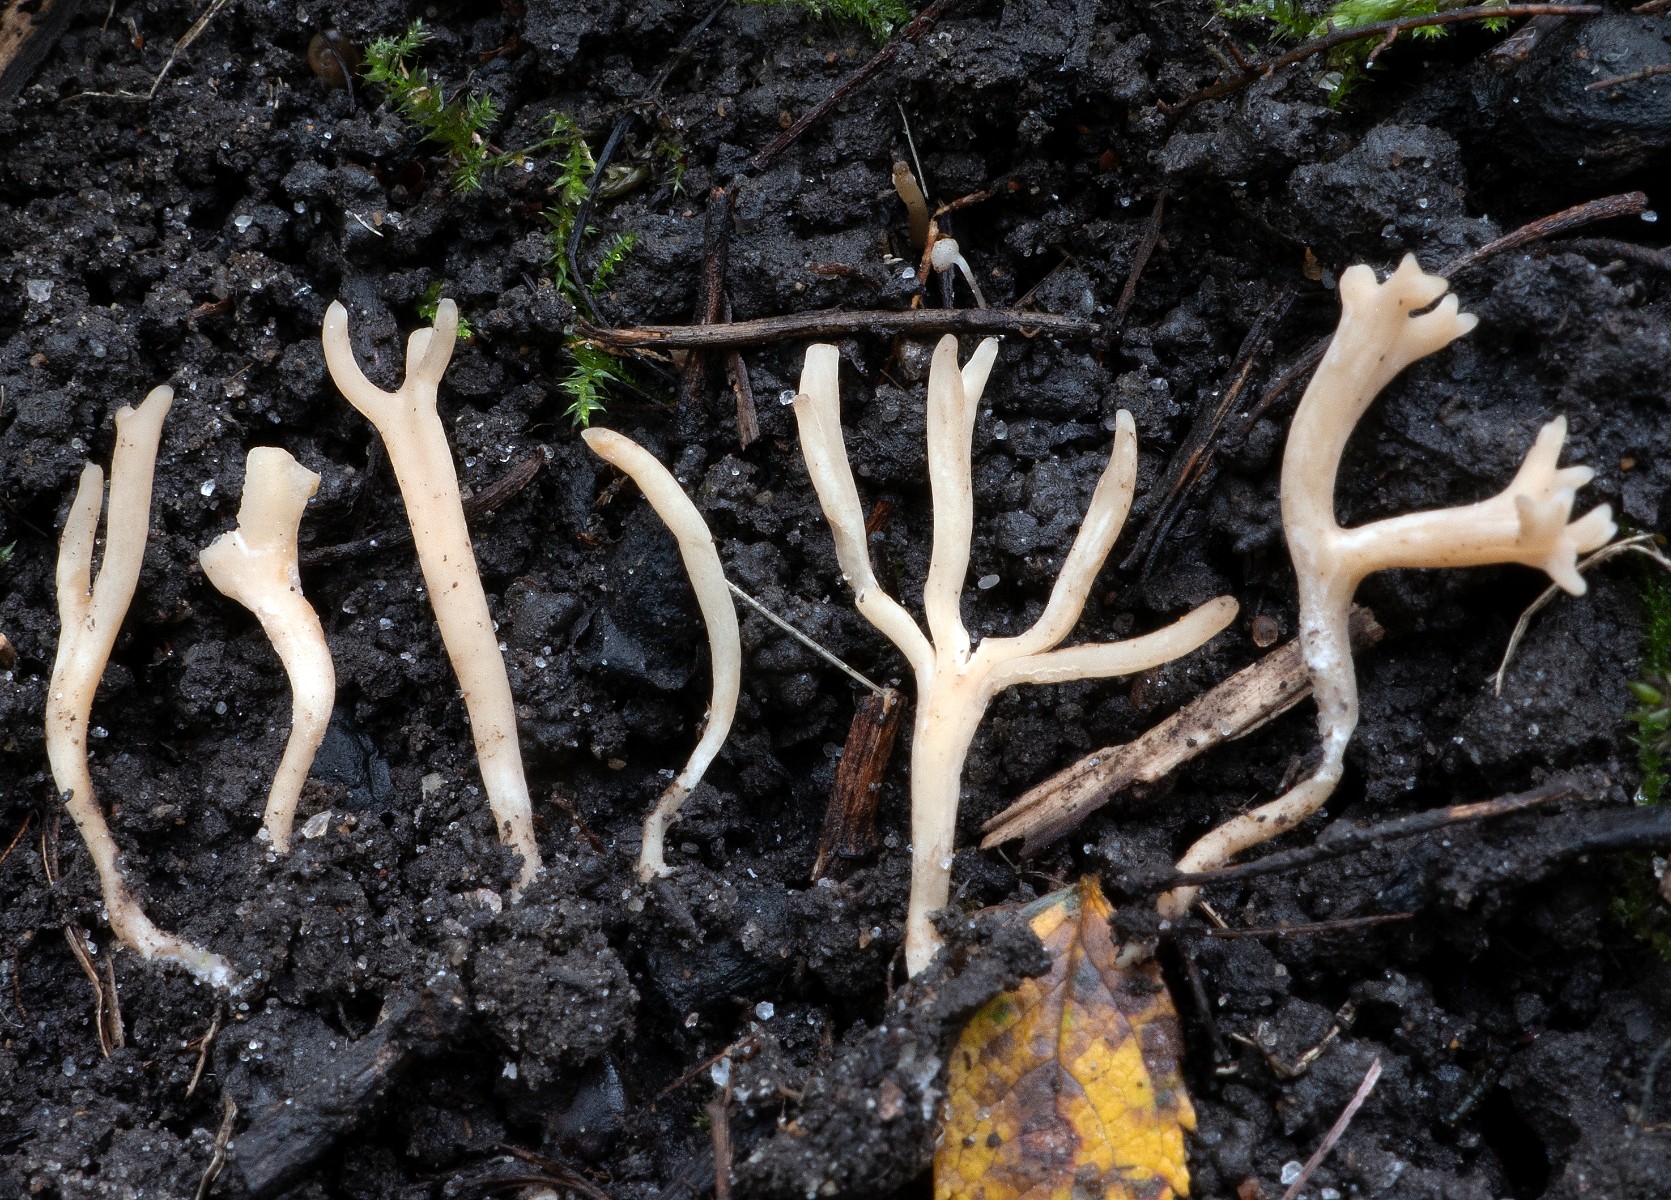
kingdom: Fungi
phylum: Basidiomycota
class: Agaricomycetes
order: Agaricales
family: Clavariaceae
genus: Ramariopsis
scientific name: Ramariopsis tenuicula
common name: spinkel køllesvamp
